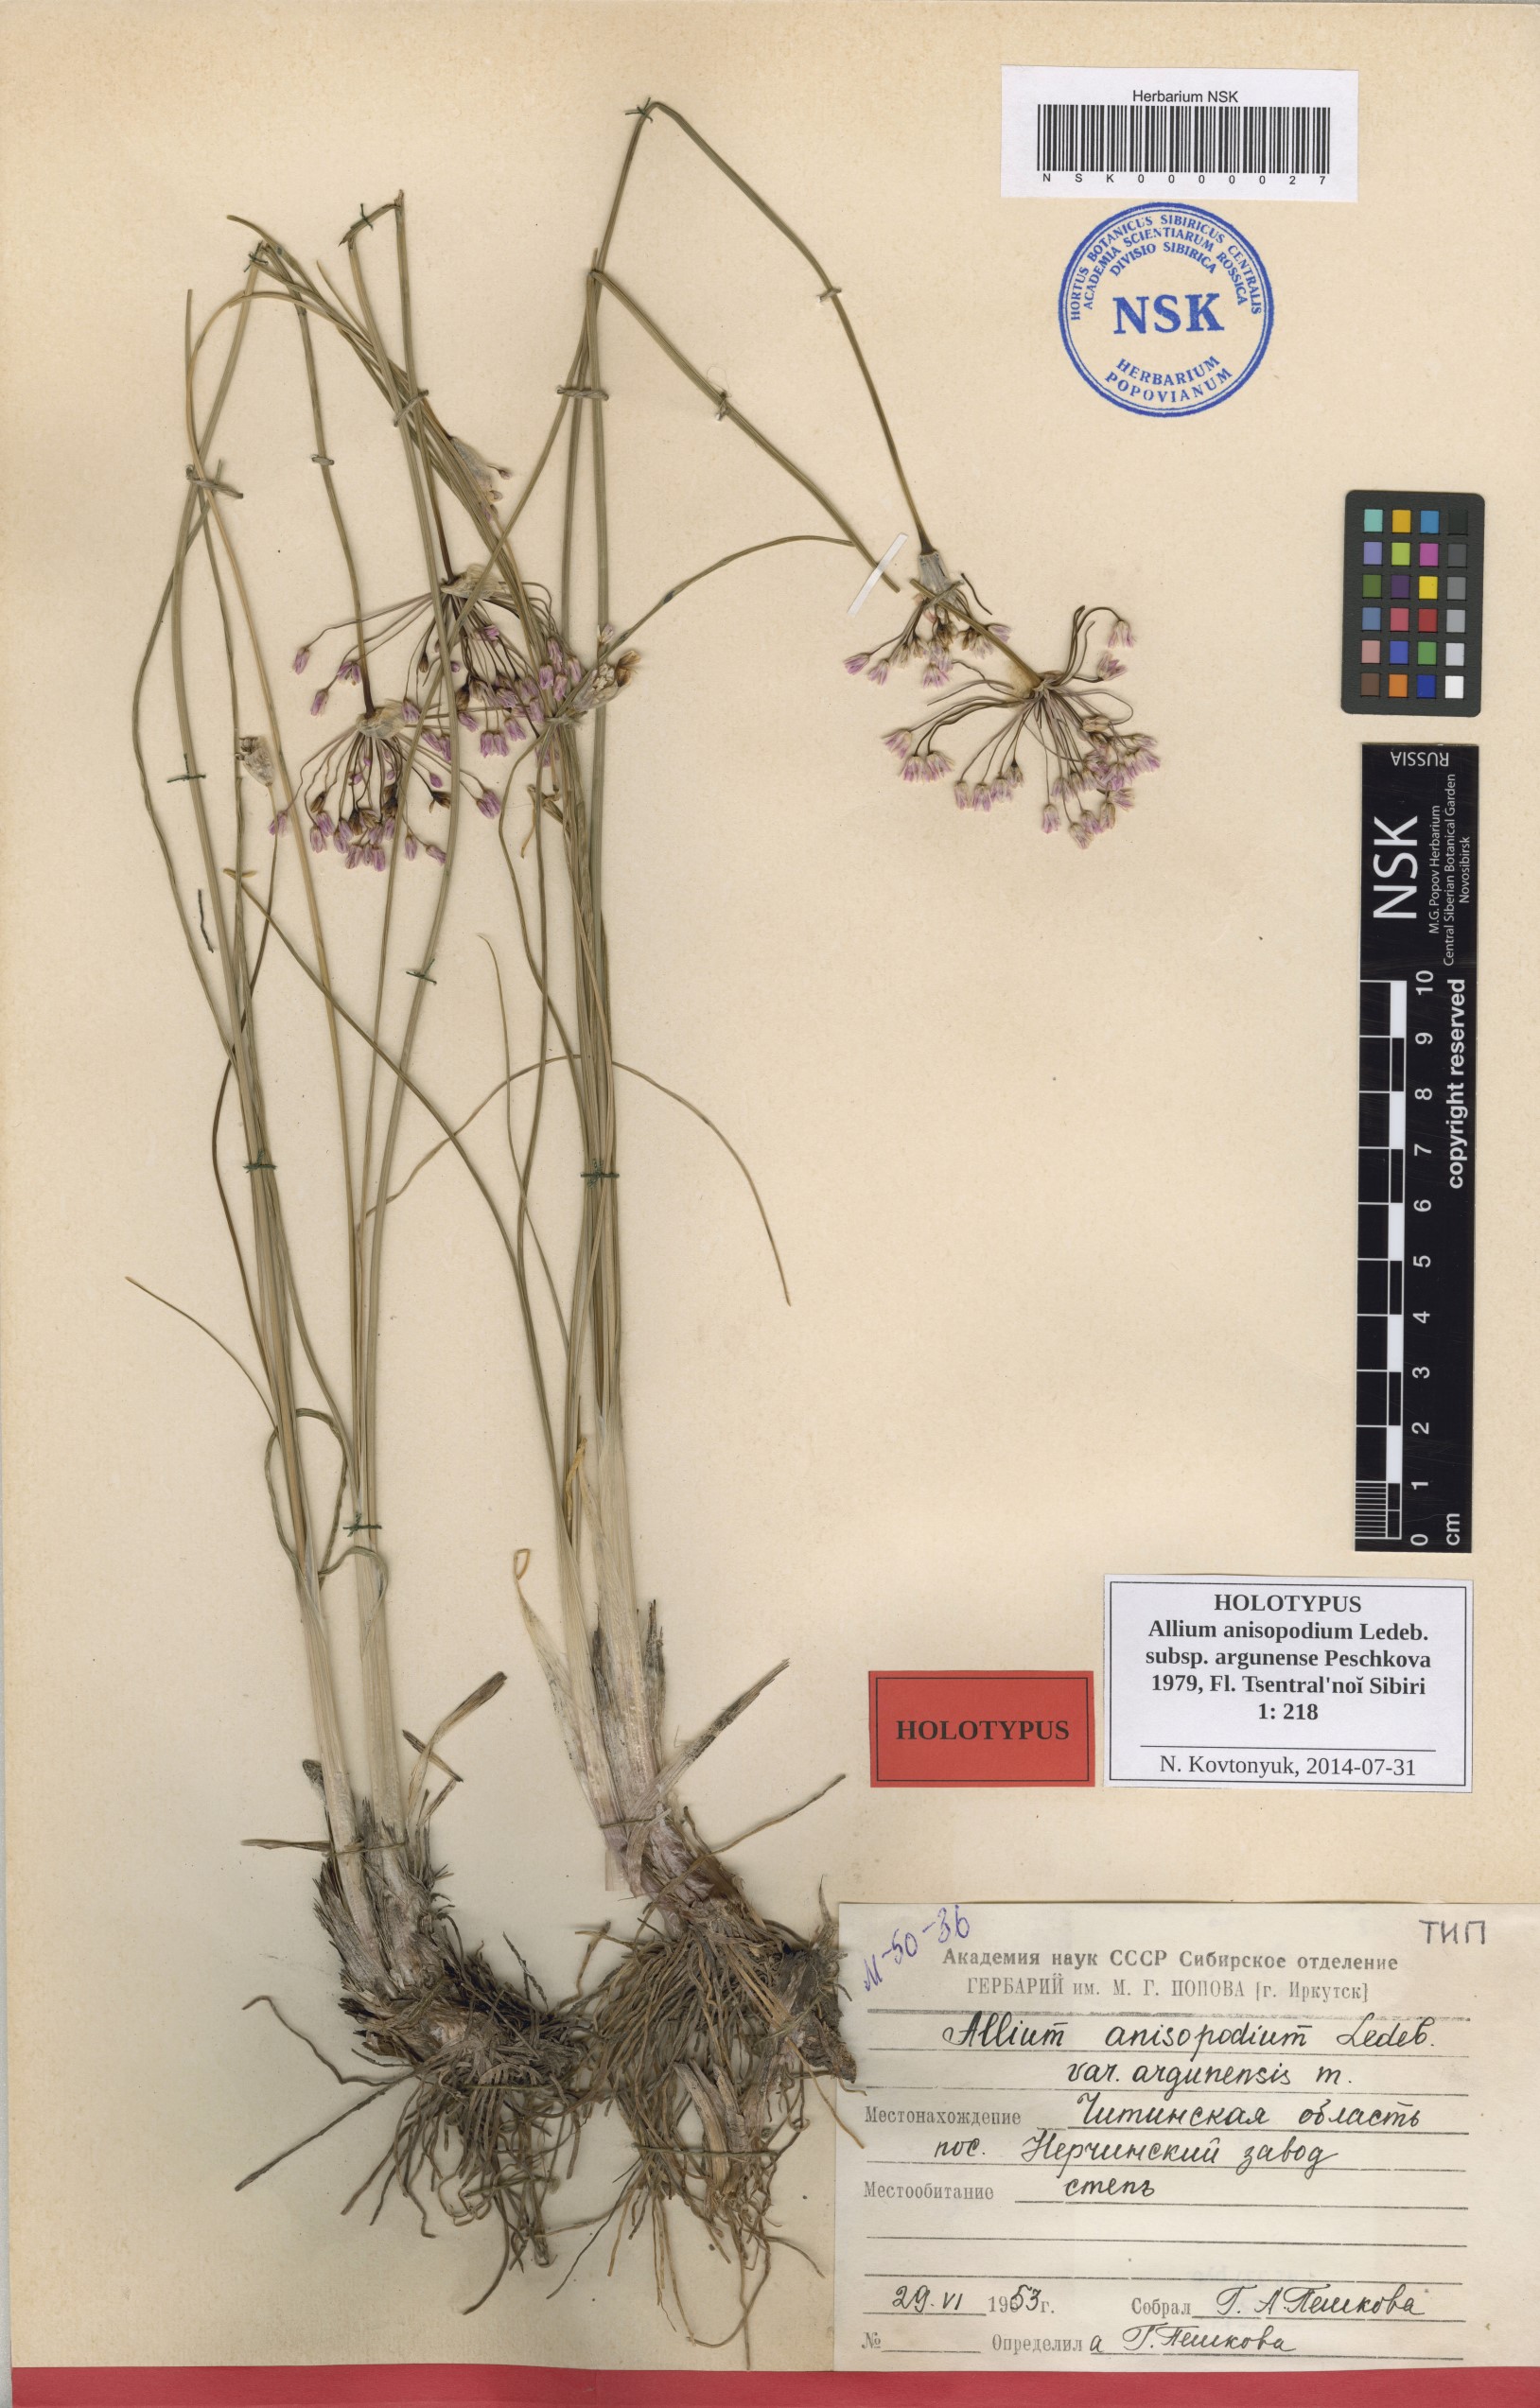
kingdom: Plantae
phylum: Tracheophyta
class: Liliopsida
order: Asparagales
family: Amaryllidaceae
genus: Allium
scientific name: Allium anisopodium
